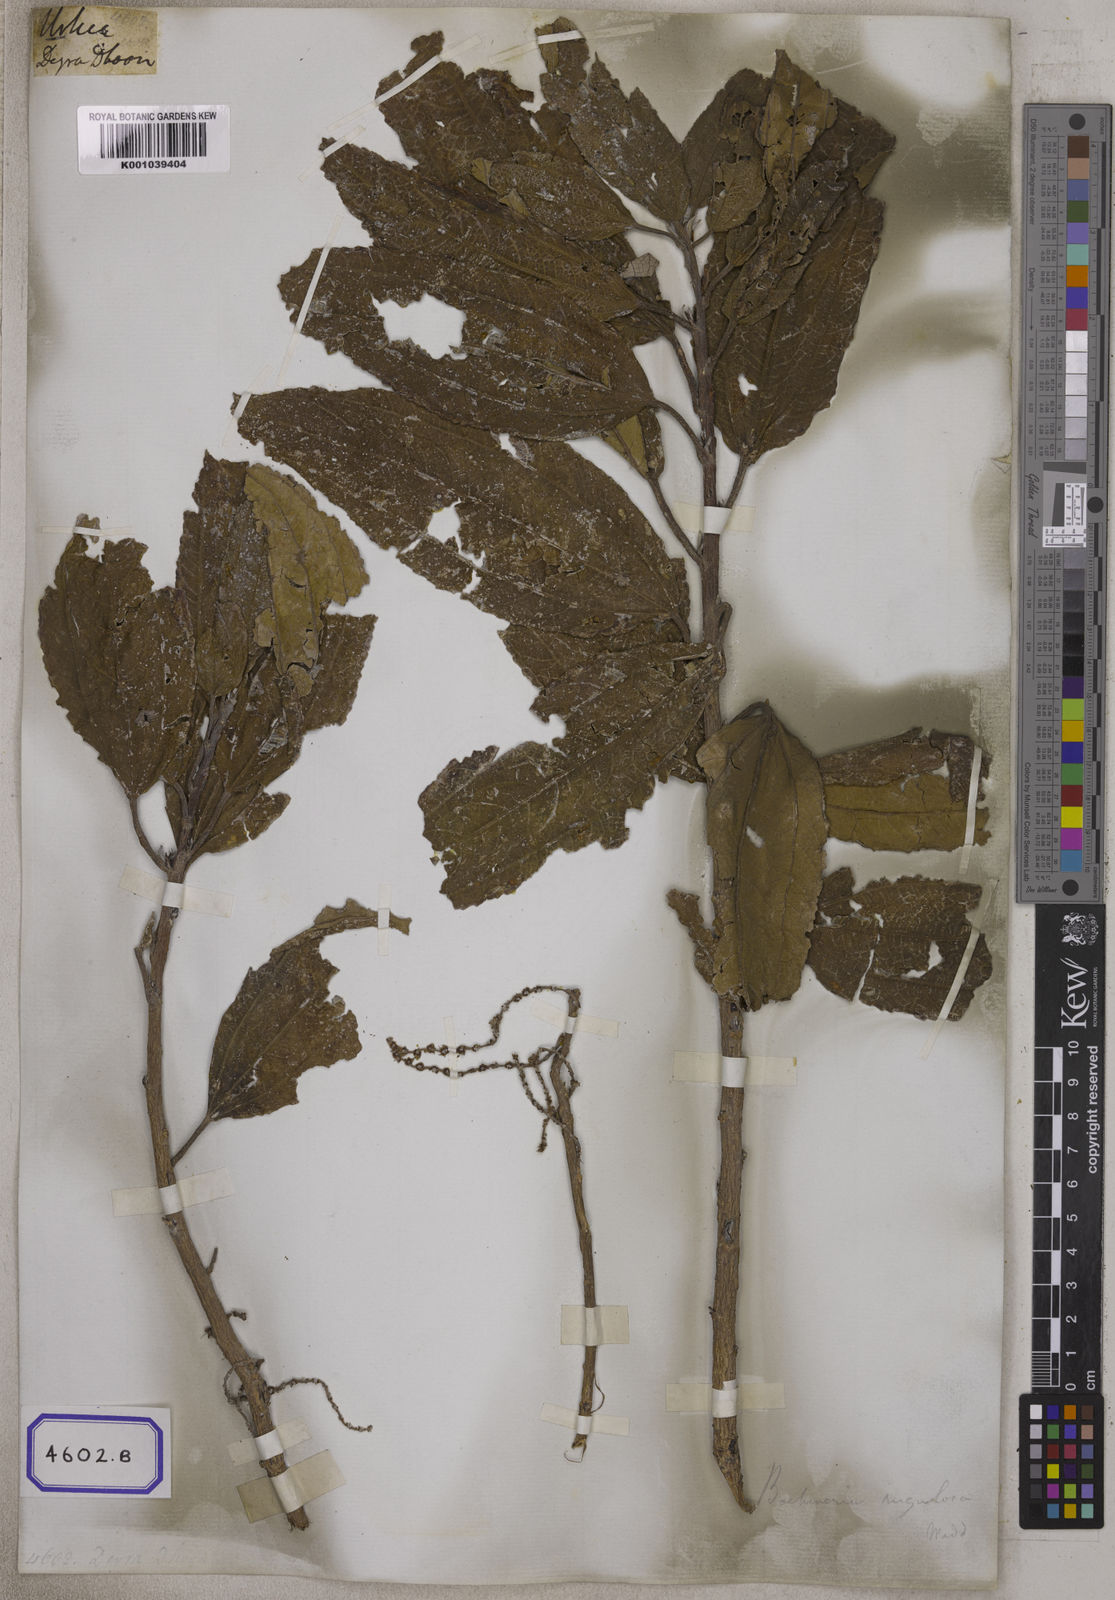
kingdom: Plantae
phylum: Tracheophyta
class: Magnoliopsida
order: Rosales
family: Urticaceae
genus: Urtica
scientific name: Urtica
